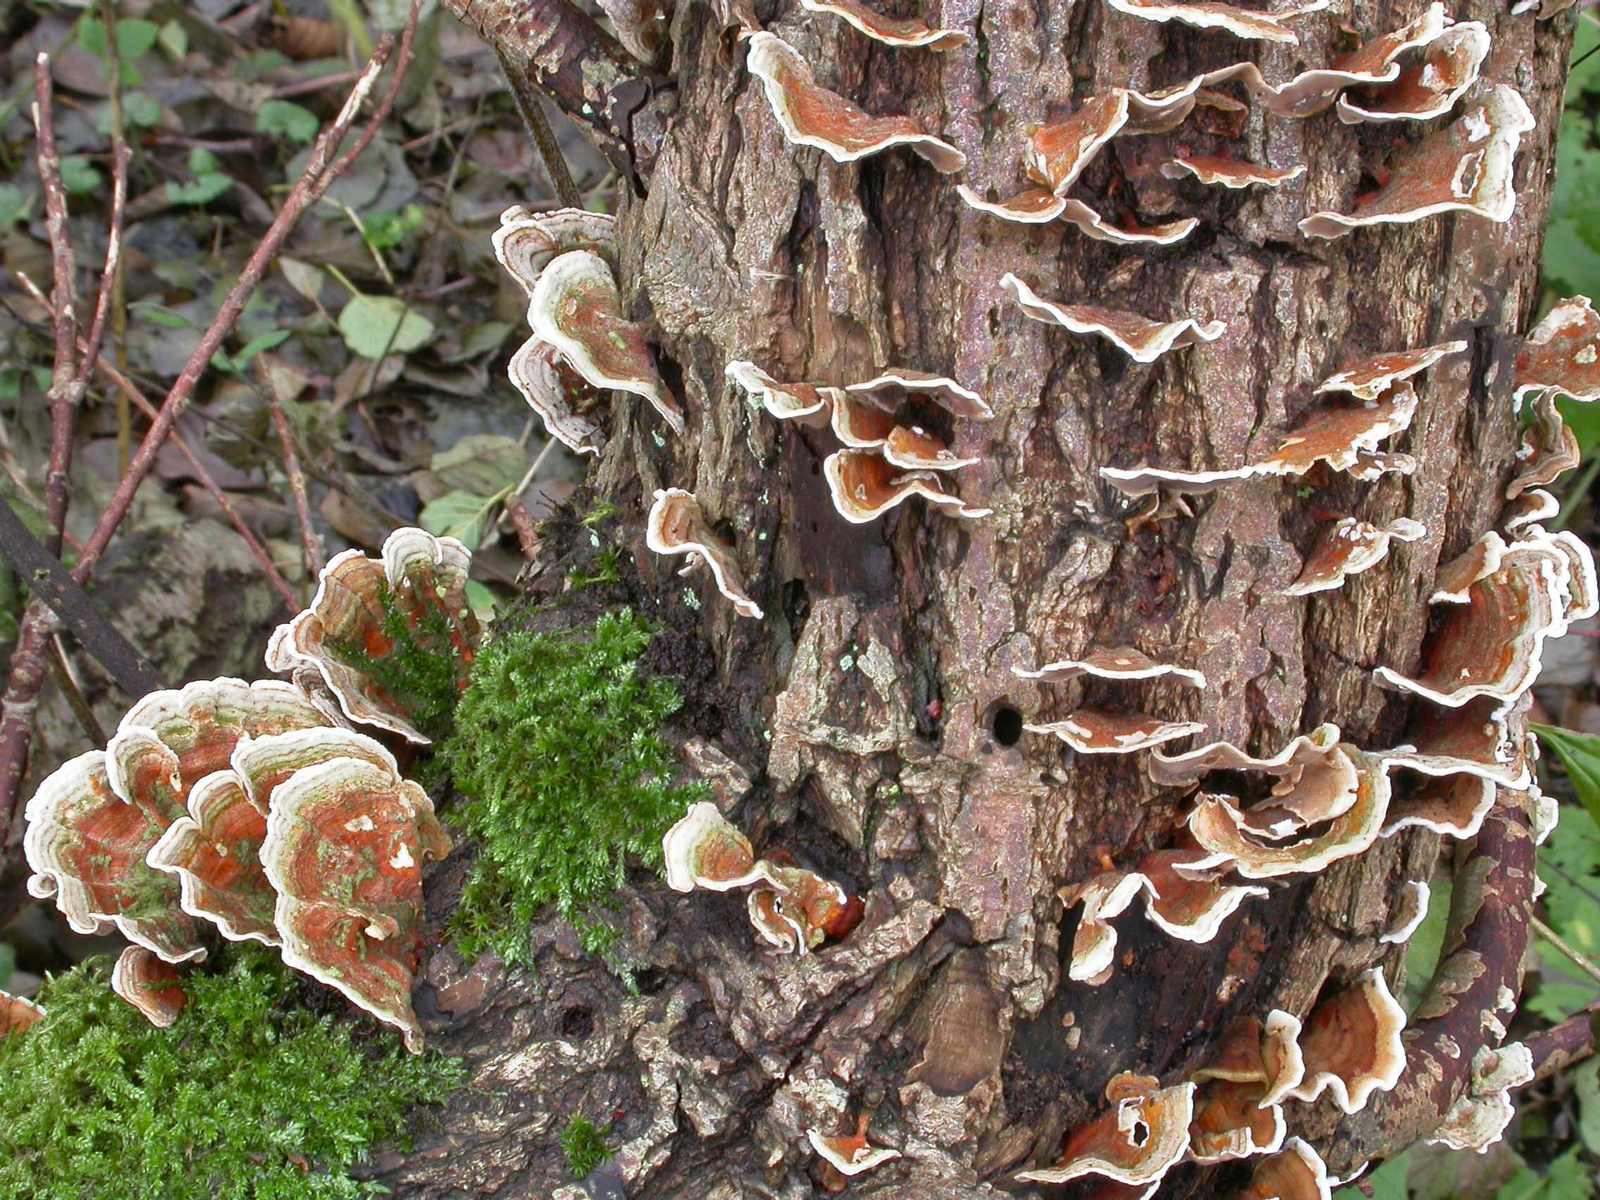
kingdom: Fungi
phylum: Basidiomycota
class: Agaricomycetes
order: Russulales
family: Stereaceae
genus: Stereum
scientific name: Stereum subtomentosum
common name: smuk lædersvamp
